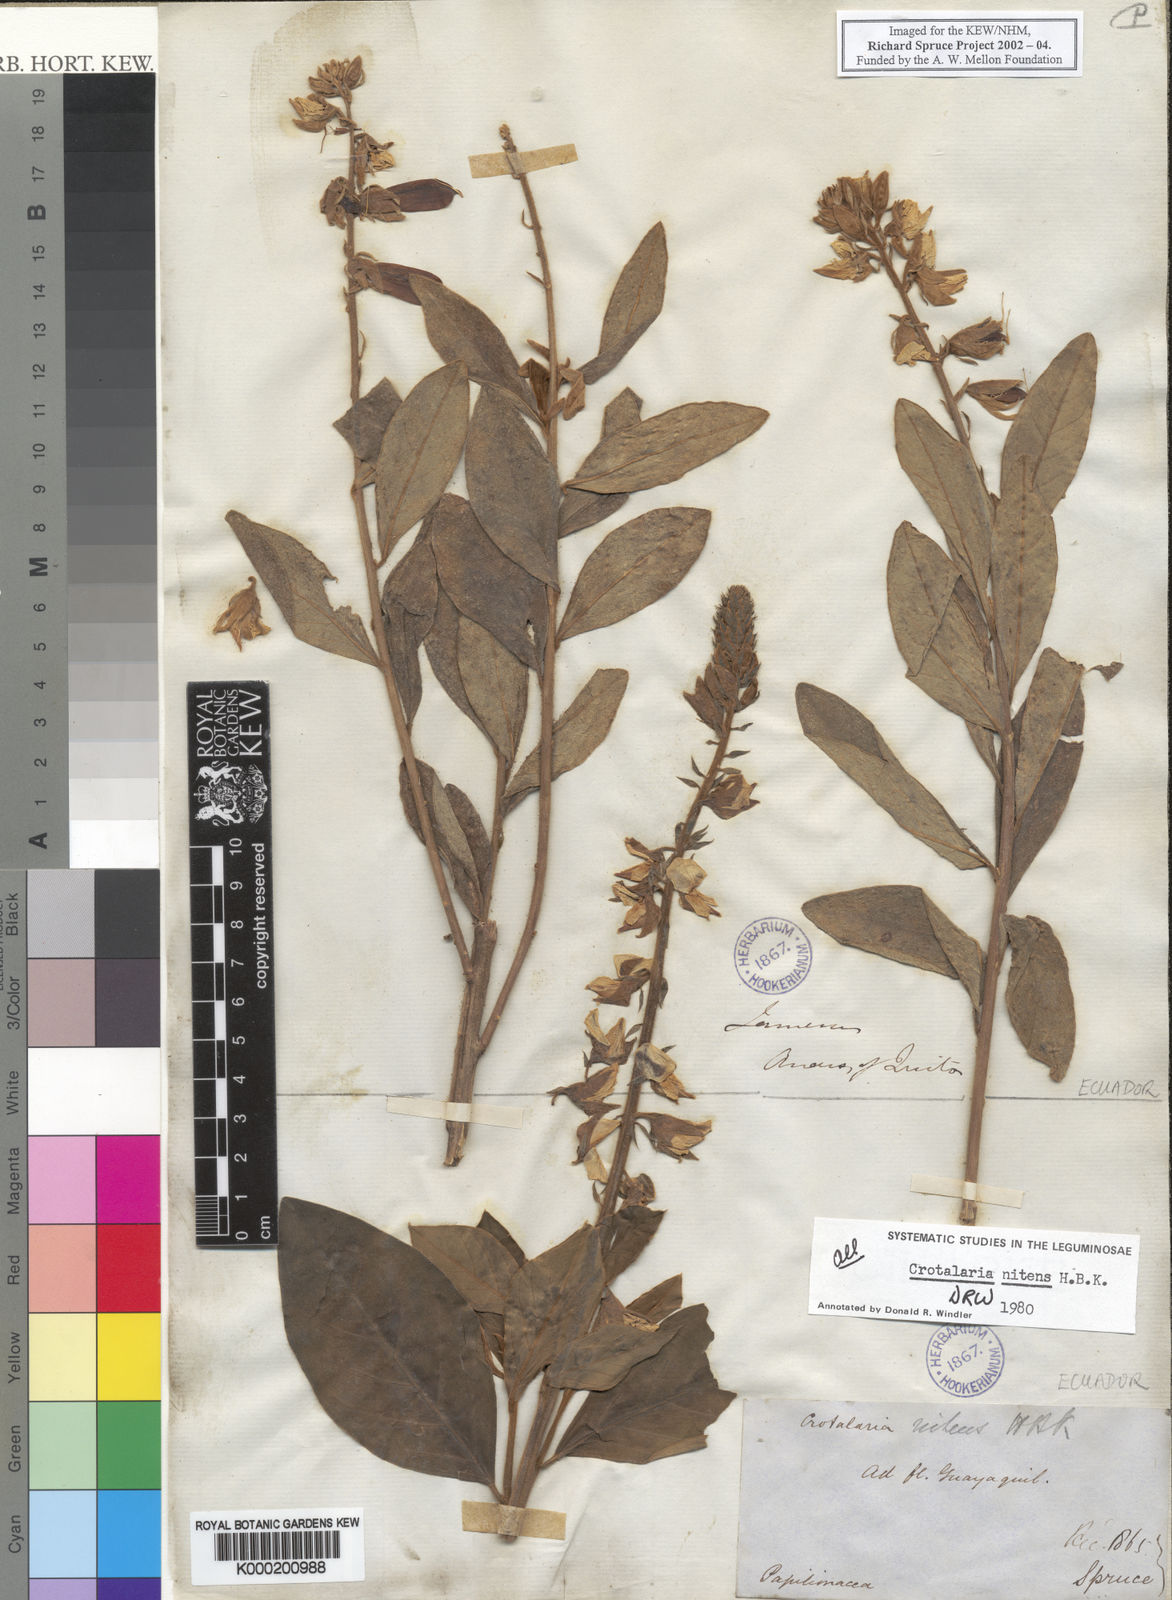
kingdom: Plantae
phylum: Tracheophyta
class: Magnoliopsida
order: Fabales
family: Fabaceae
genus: Crotalaria
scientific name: Crotalaria nitens
